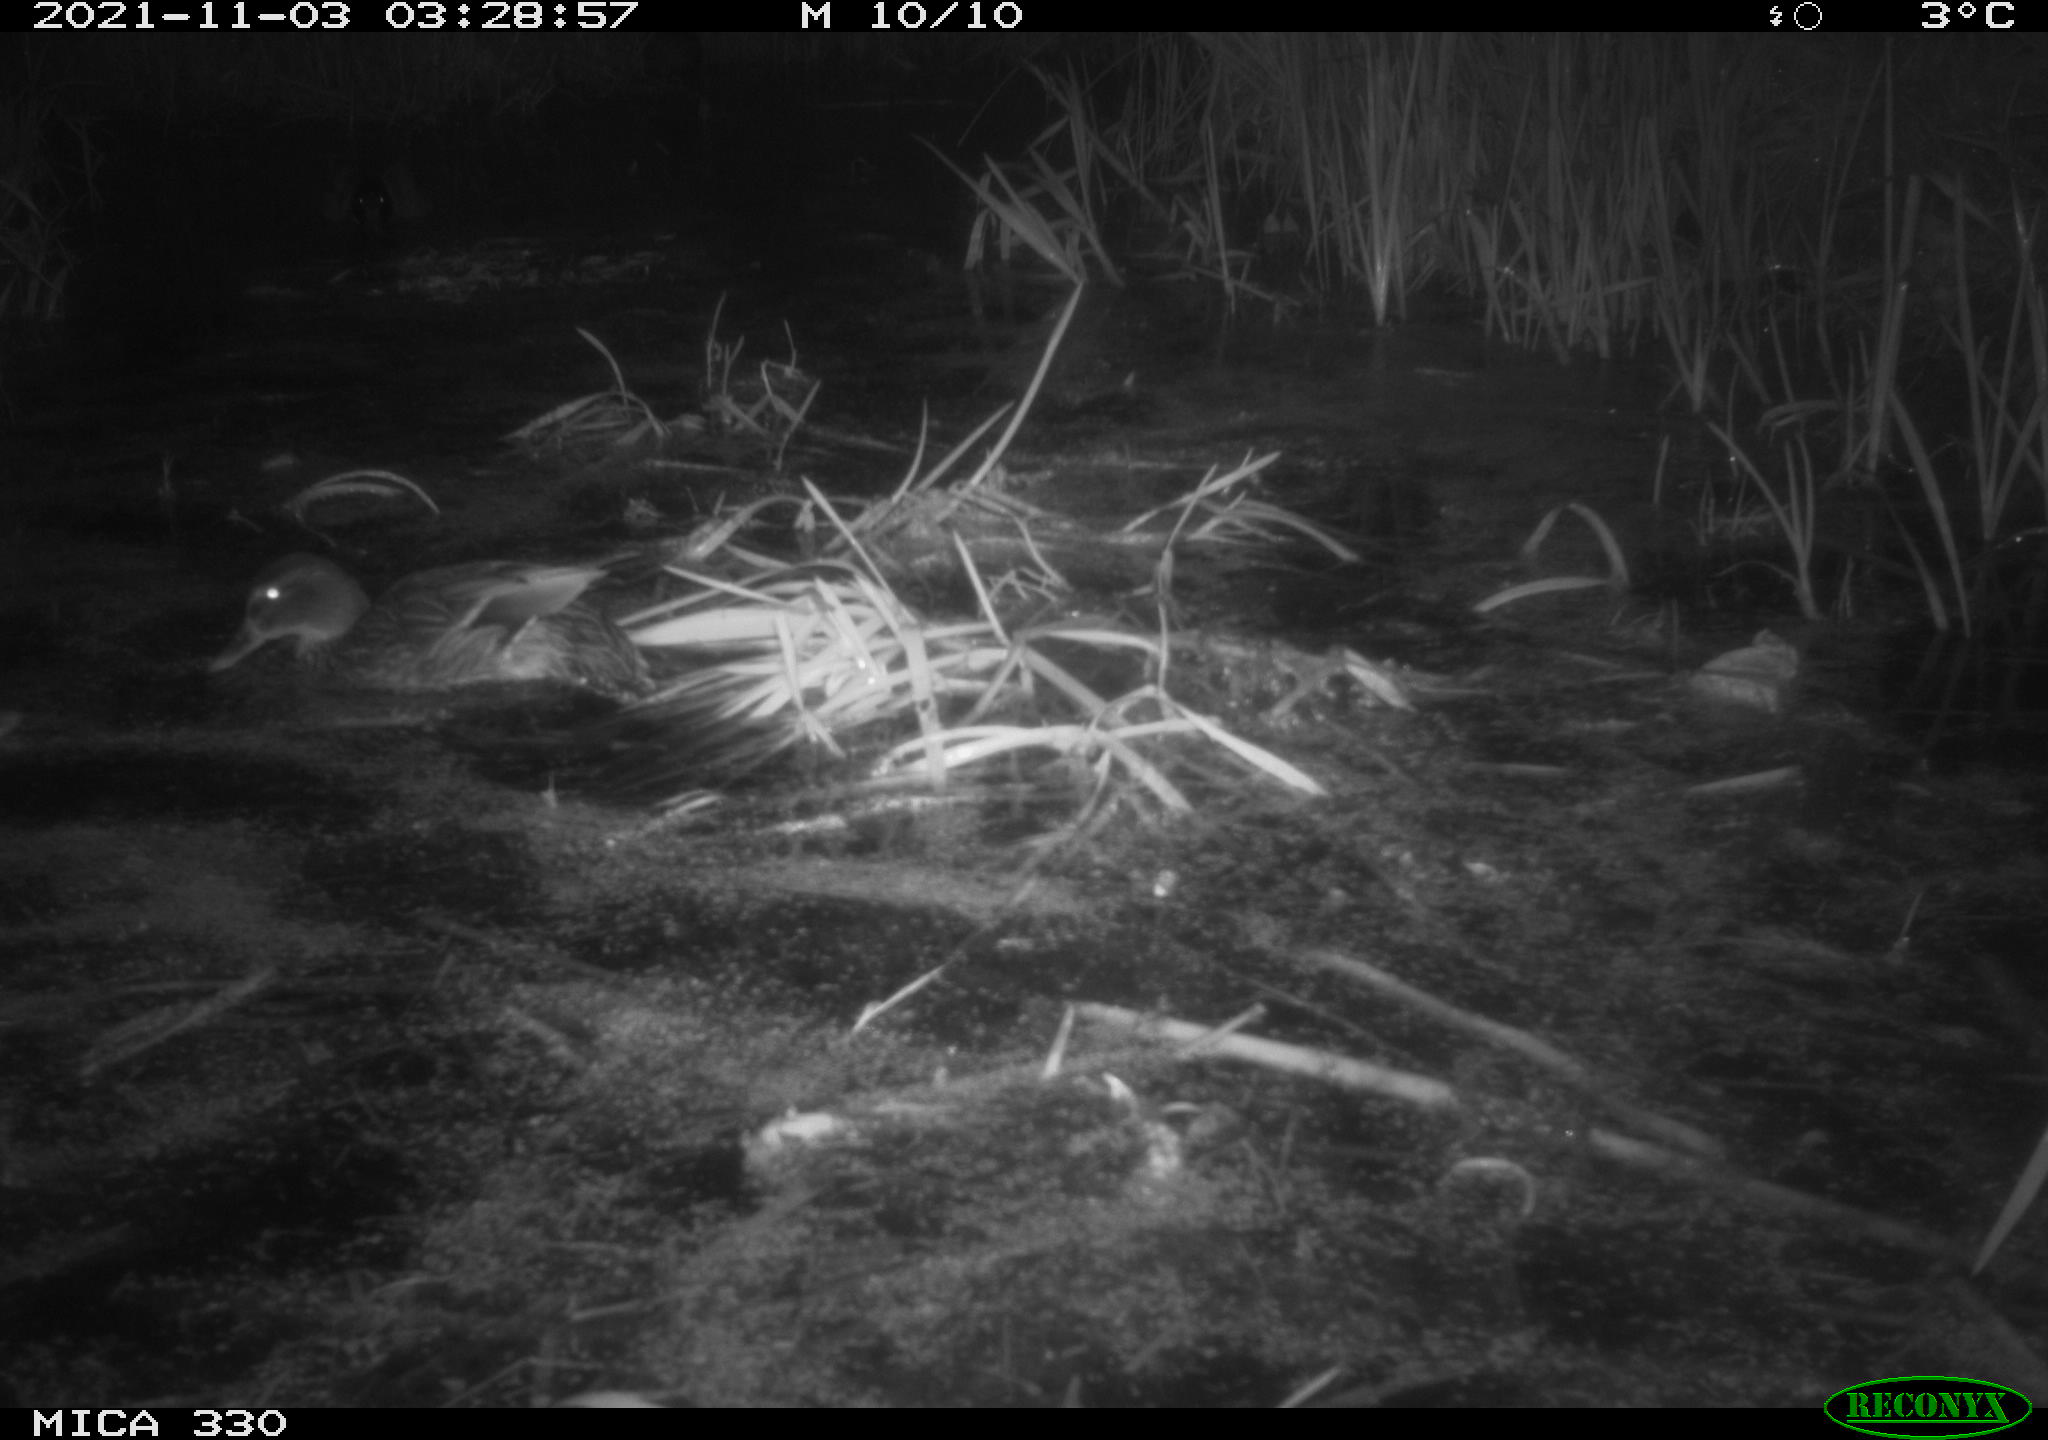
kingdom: Animalia
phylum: Chordata
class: Aves
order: Anseriformes
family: Anatidae
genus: Anas
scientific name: Anas platyrhynchos
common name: Mallard
